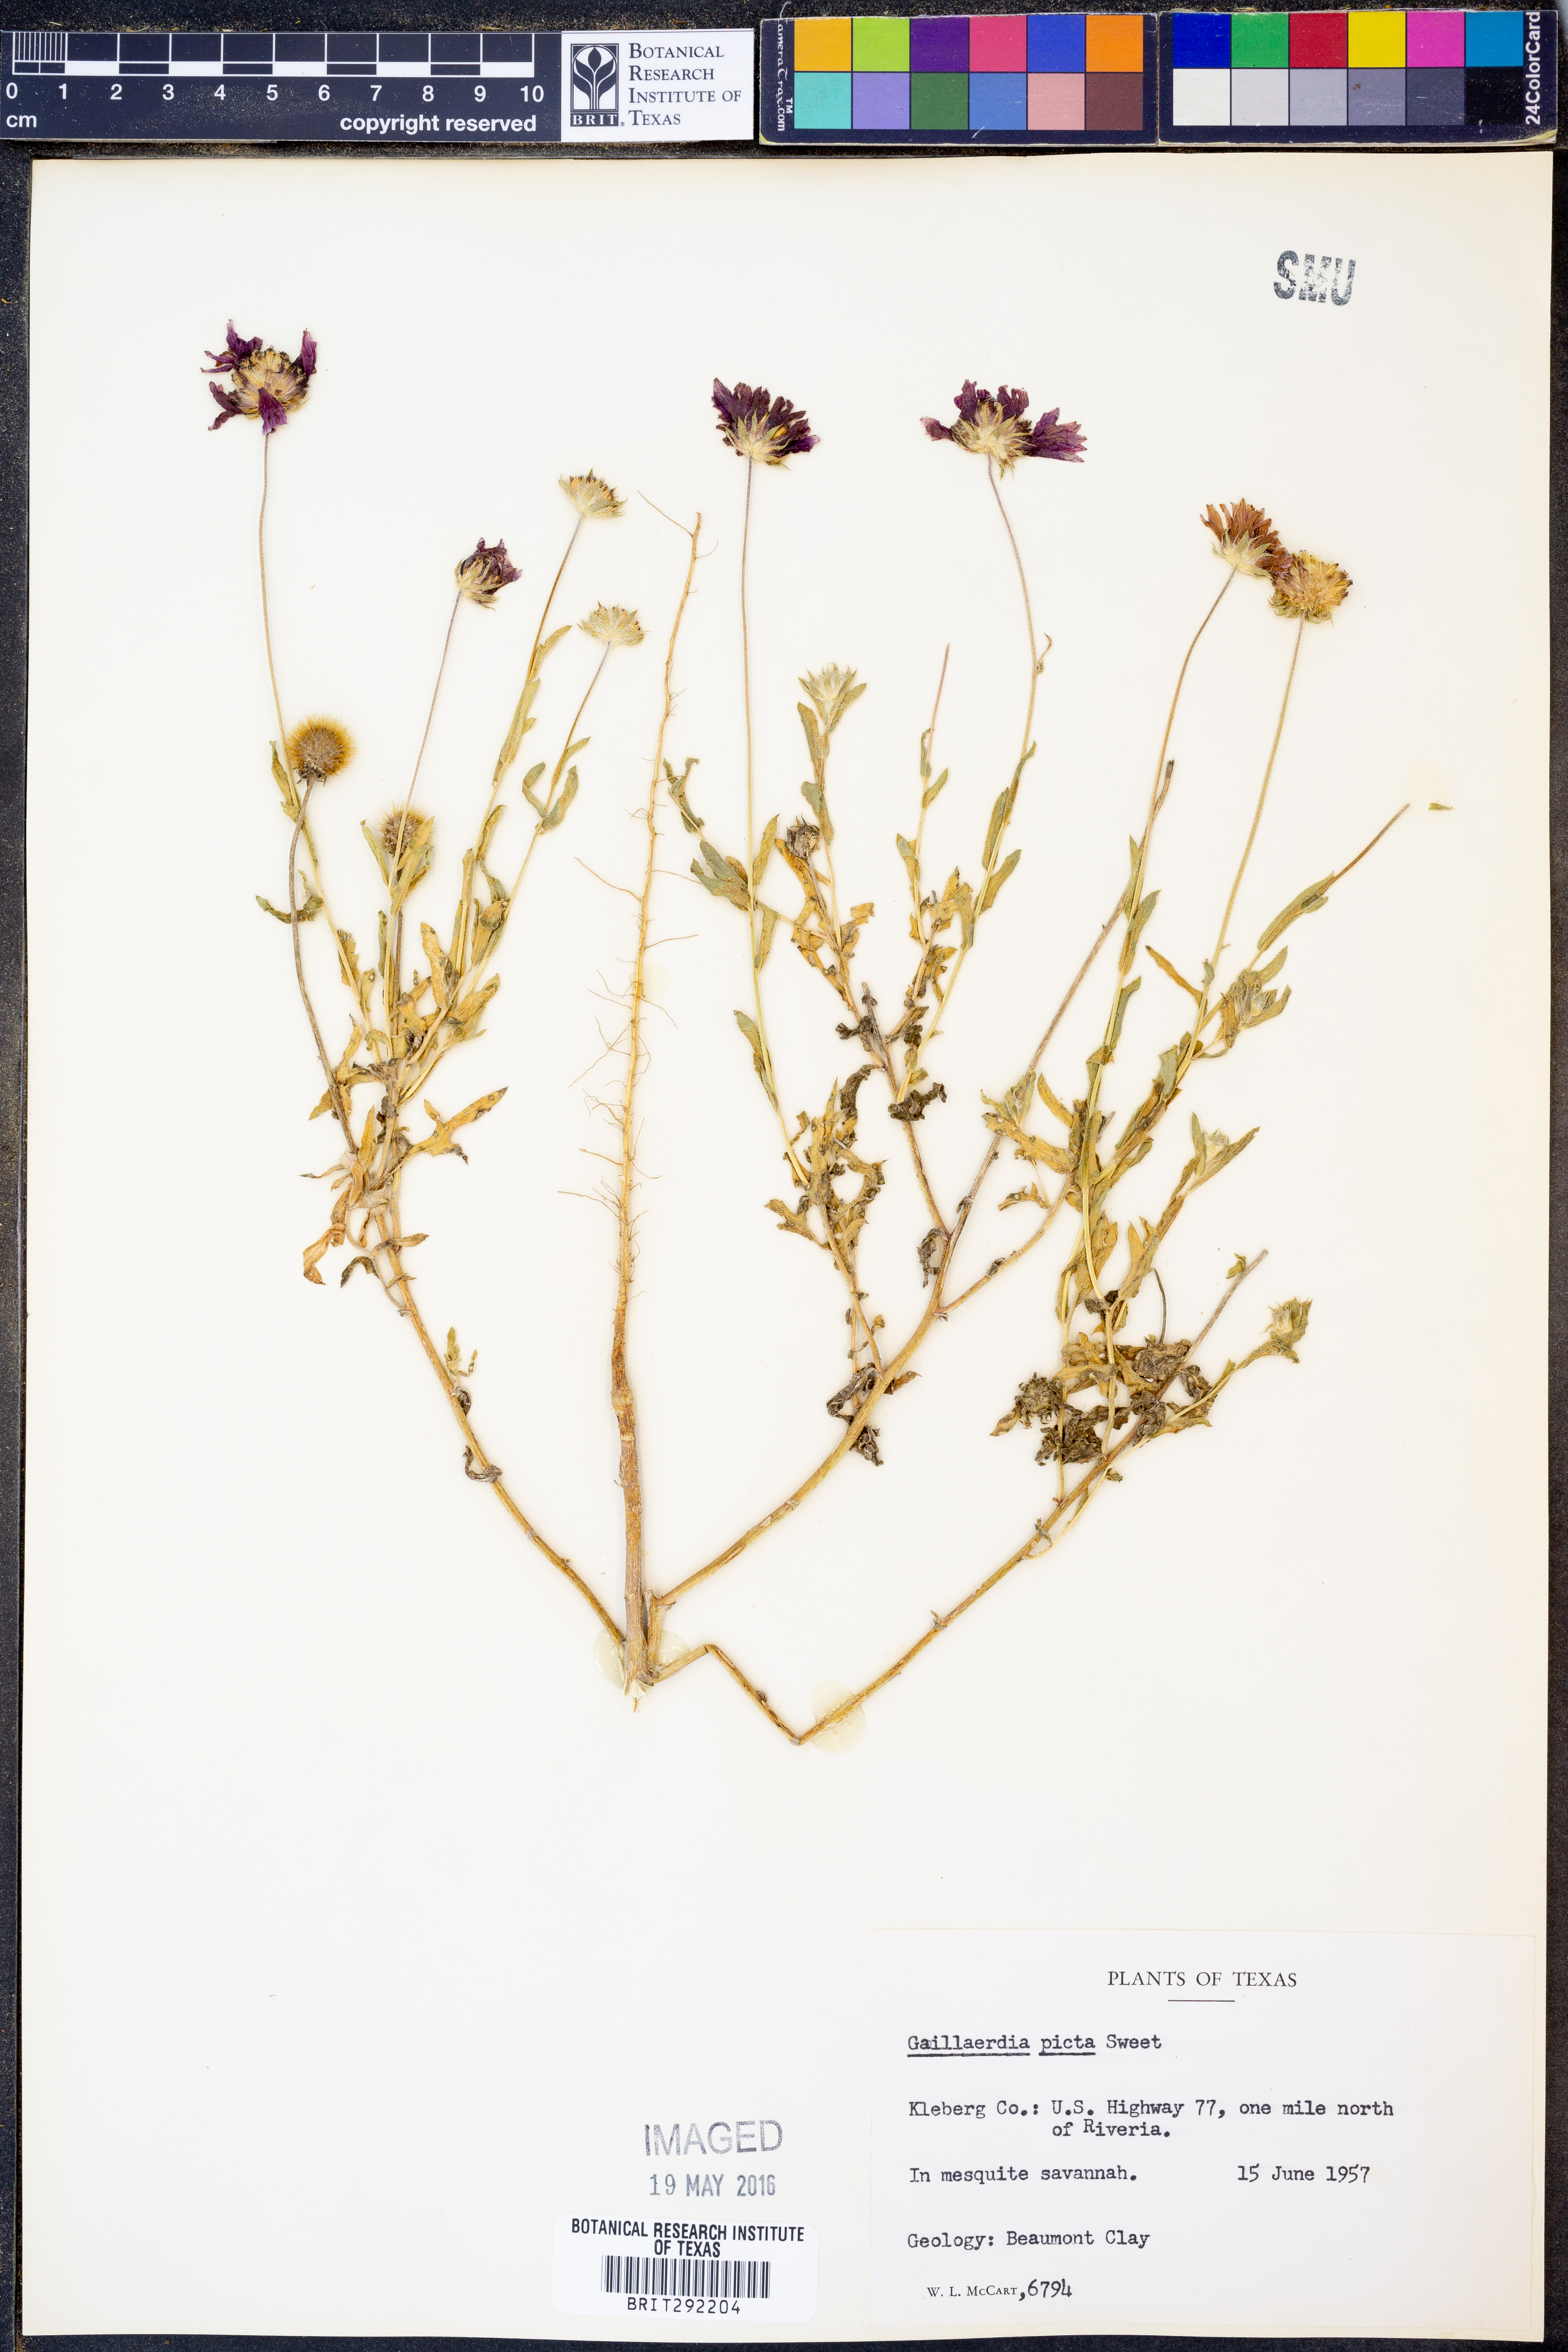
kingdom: Plantae
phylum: Tracheophyta
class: Magnoliopsida
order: Asterales
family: Asteraceae
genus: Gaillardia
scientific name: Gaillardia pulchella
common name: Firewheel
